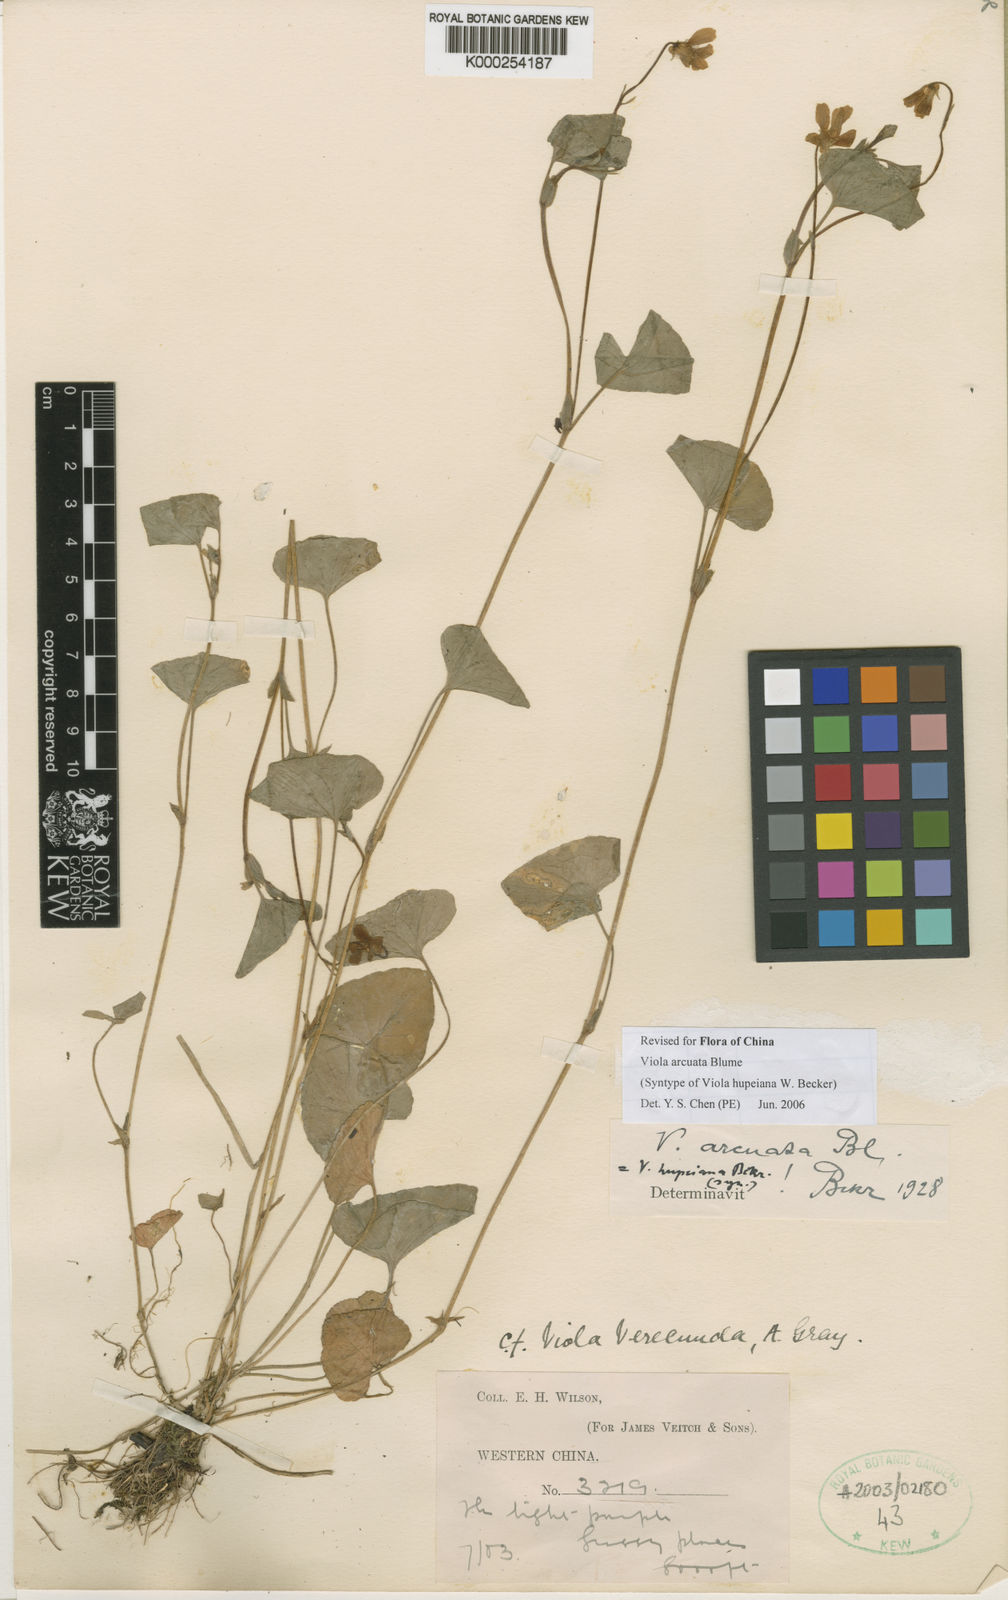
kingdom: Plantae
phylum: Tracheophyta
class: Magnoliopsida
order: Malpighiales
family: Violaceae
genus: Viola
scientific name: Viola hamiltoniana
